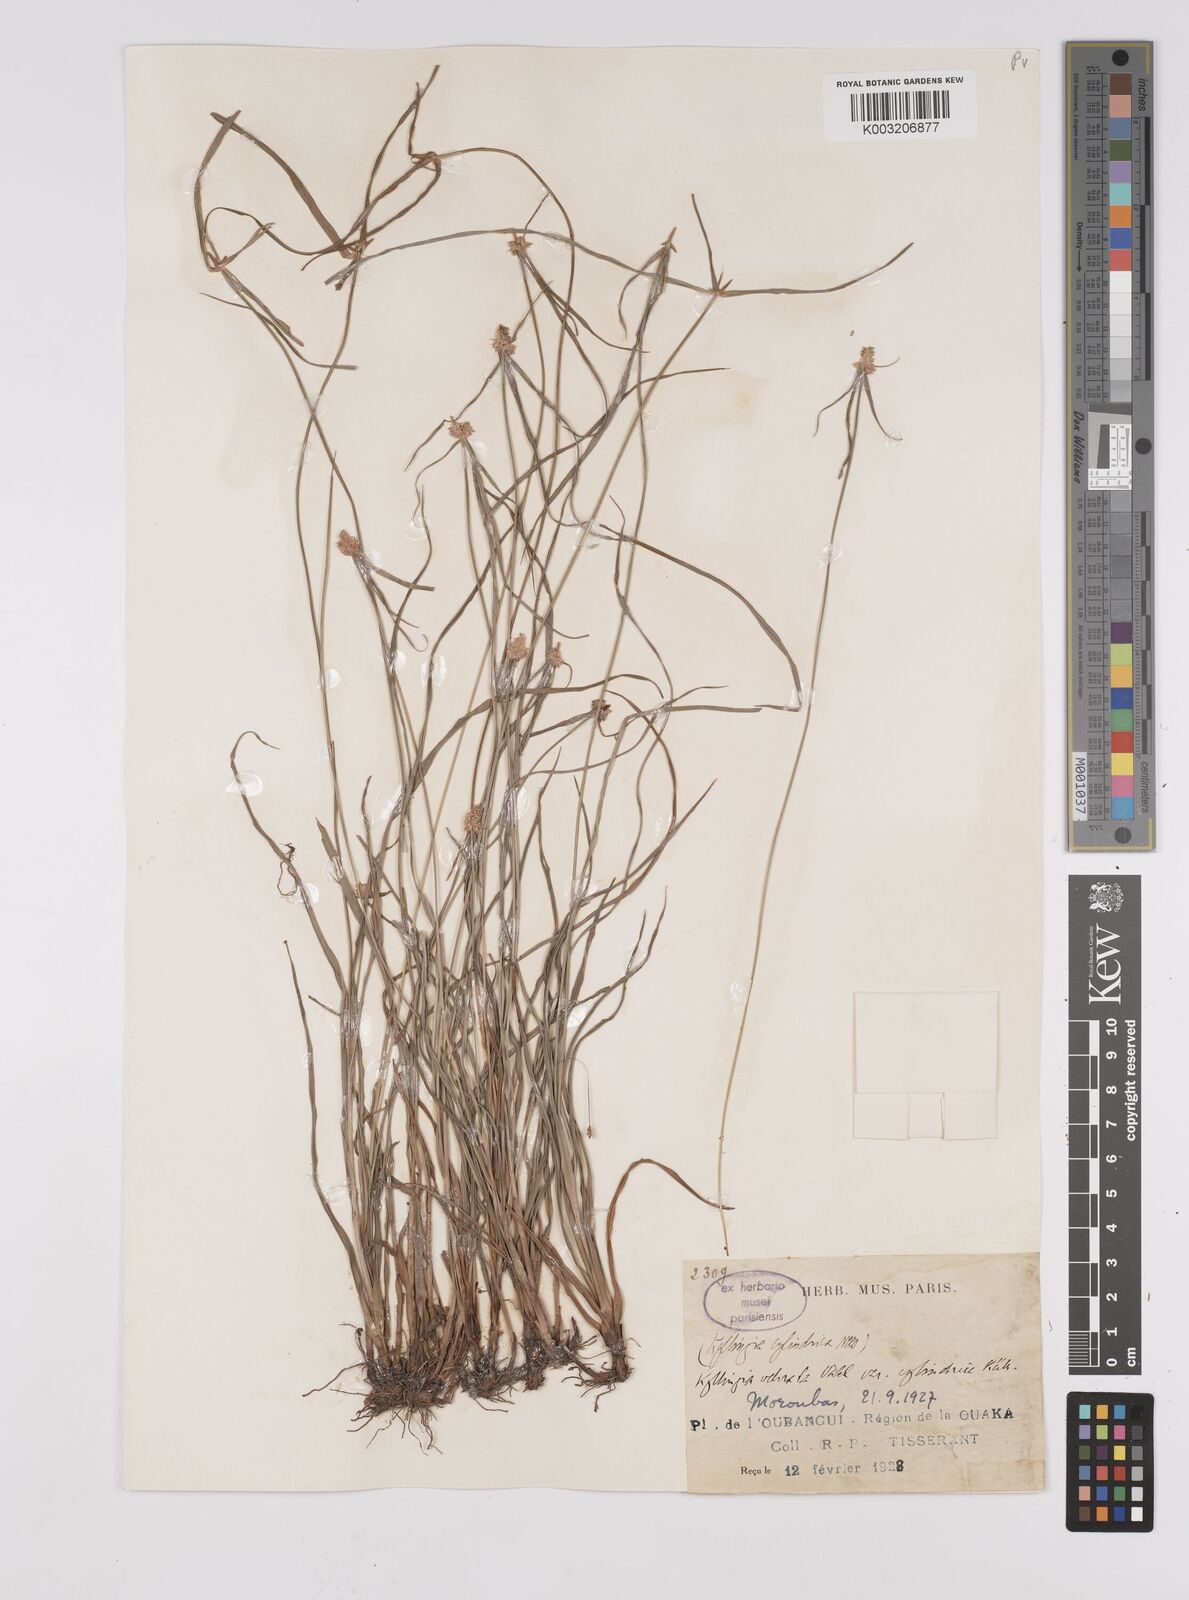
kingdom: Plantae
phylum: Tracheophyta
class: Liliopsida
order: Poales
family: Cyperaceae
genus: Cyperus
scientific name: Cyperus odoratus
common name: Fragrant flatsedge
